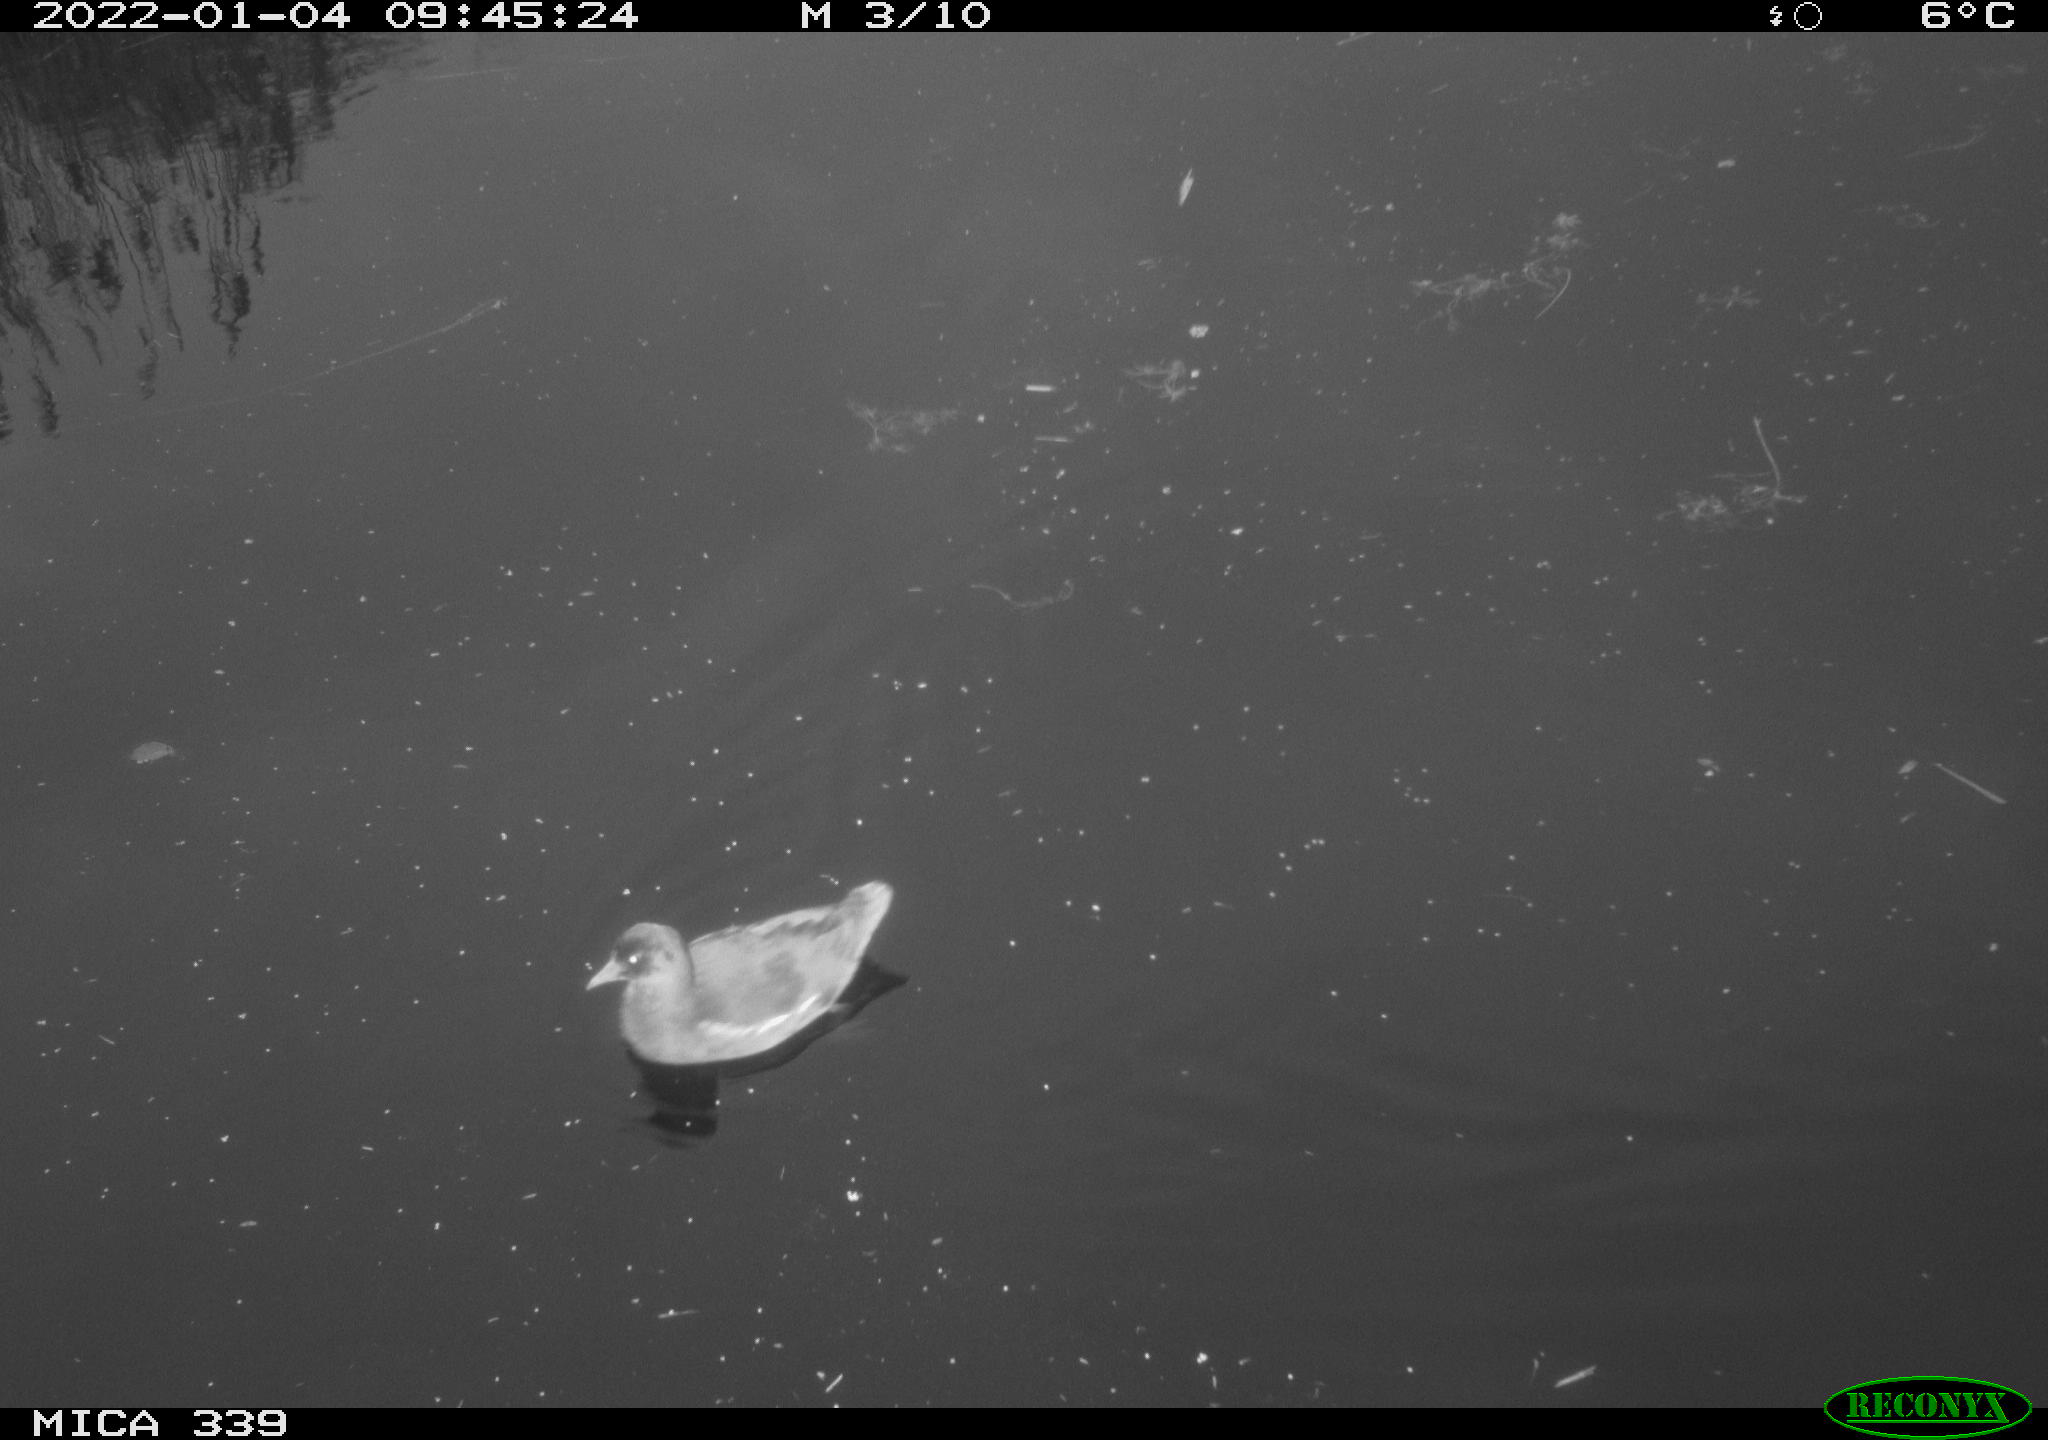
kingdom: Animalia
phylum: Chordata
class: Aves
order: Gruiformes
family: Rallidae
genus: Gallinula
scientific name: Gallinula chloropus
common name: Common moorhen
